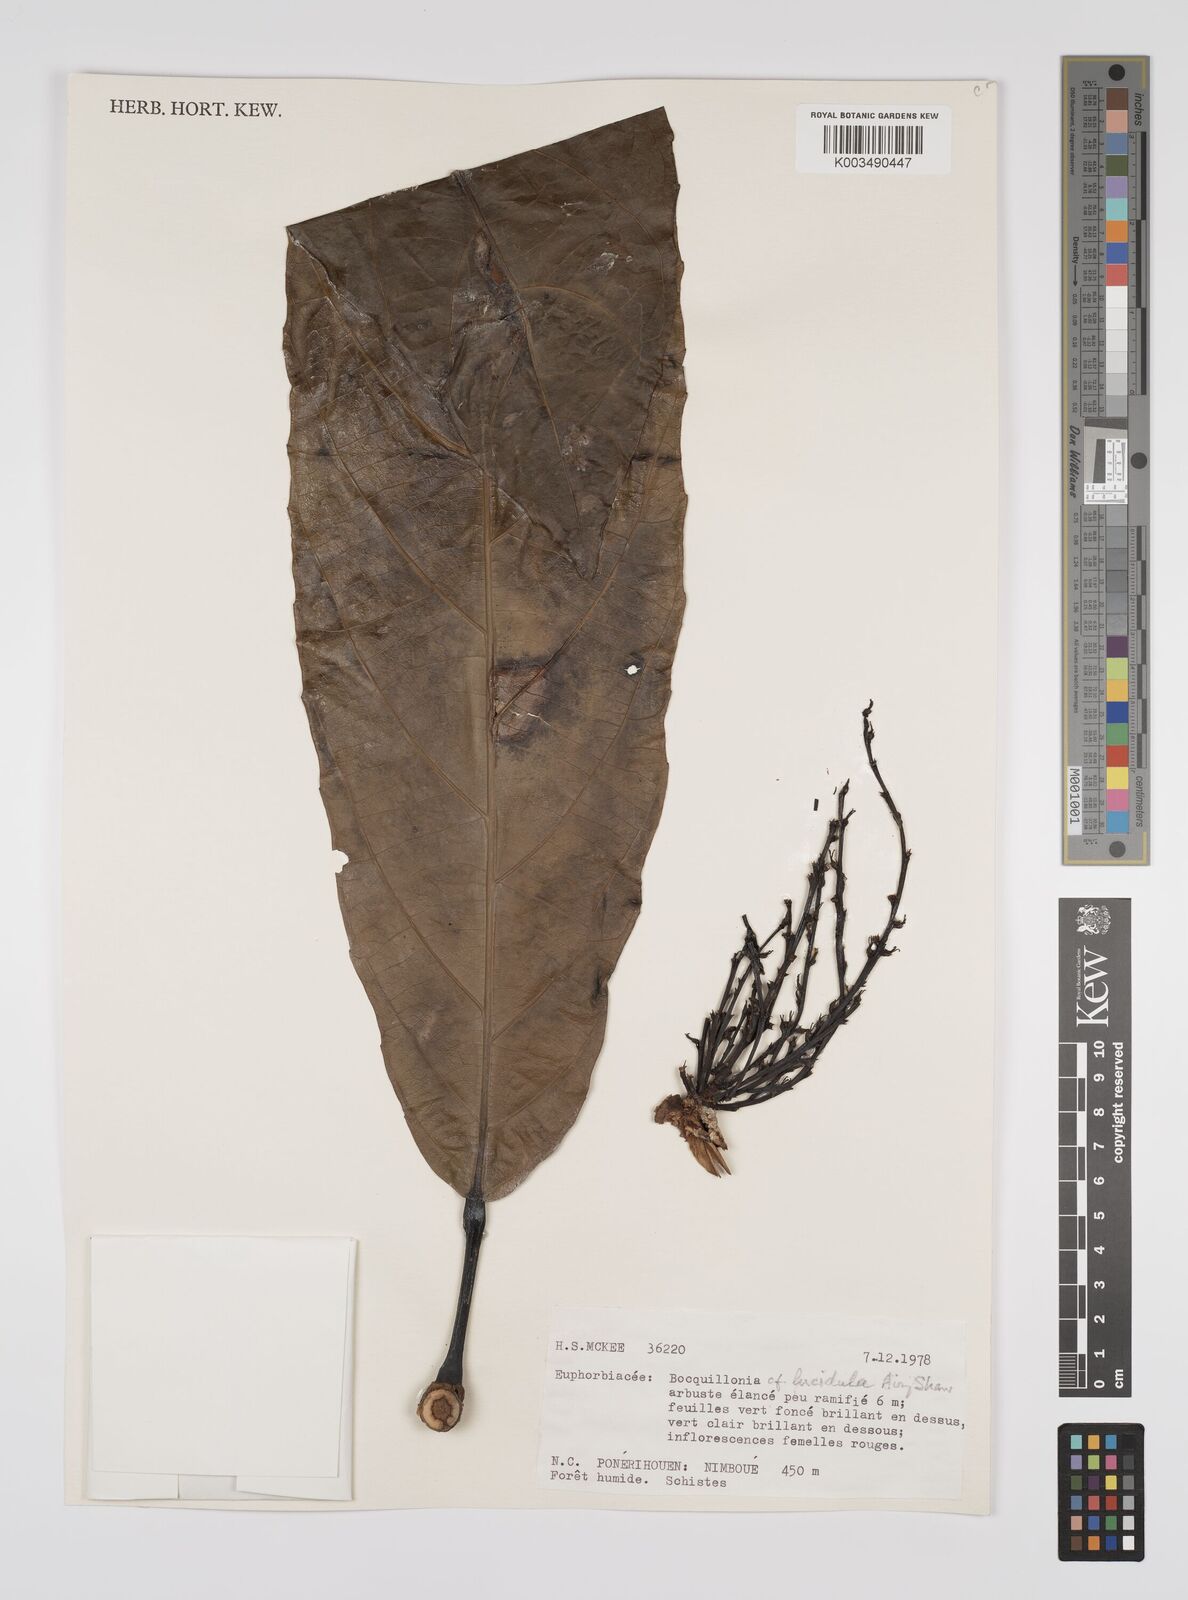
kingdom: Plantae
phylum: Tracheophyta
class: Magnoliopsida
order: Malpighiales
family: Euphorbiaceae
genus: Bocquillonia
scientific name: Bocquillonia lucidula
